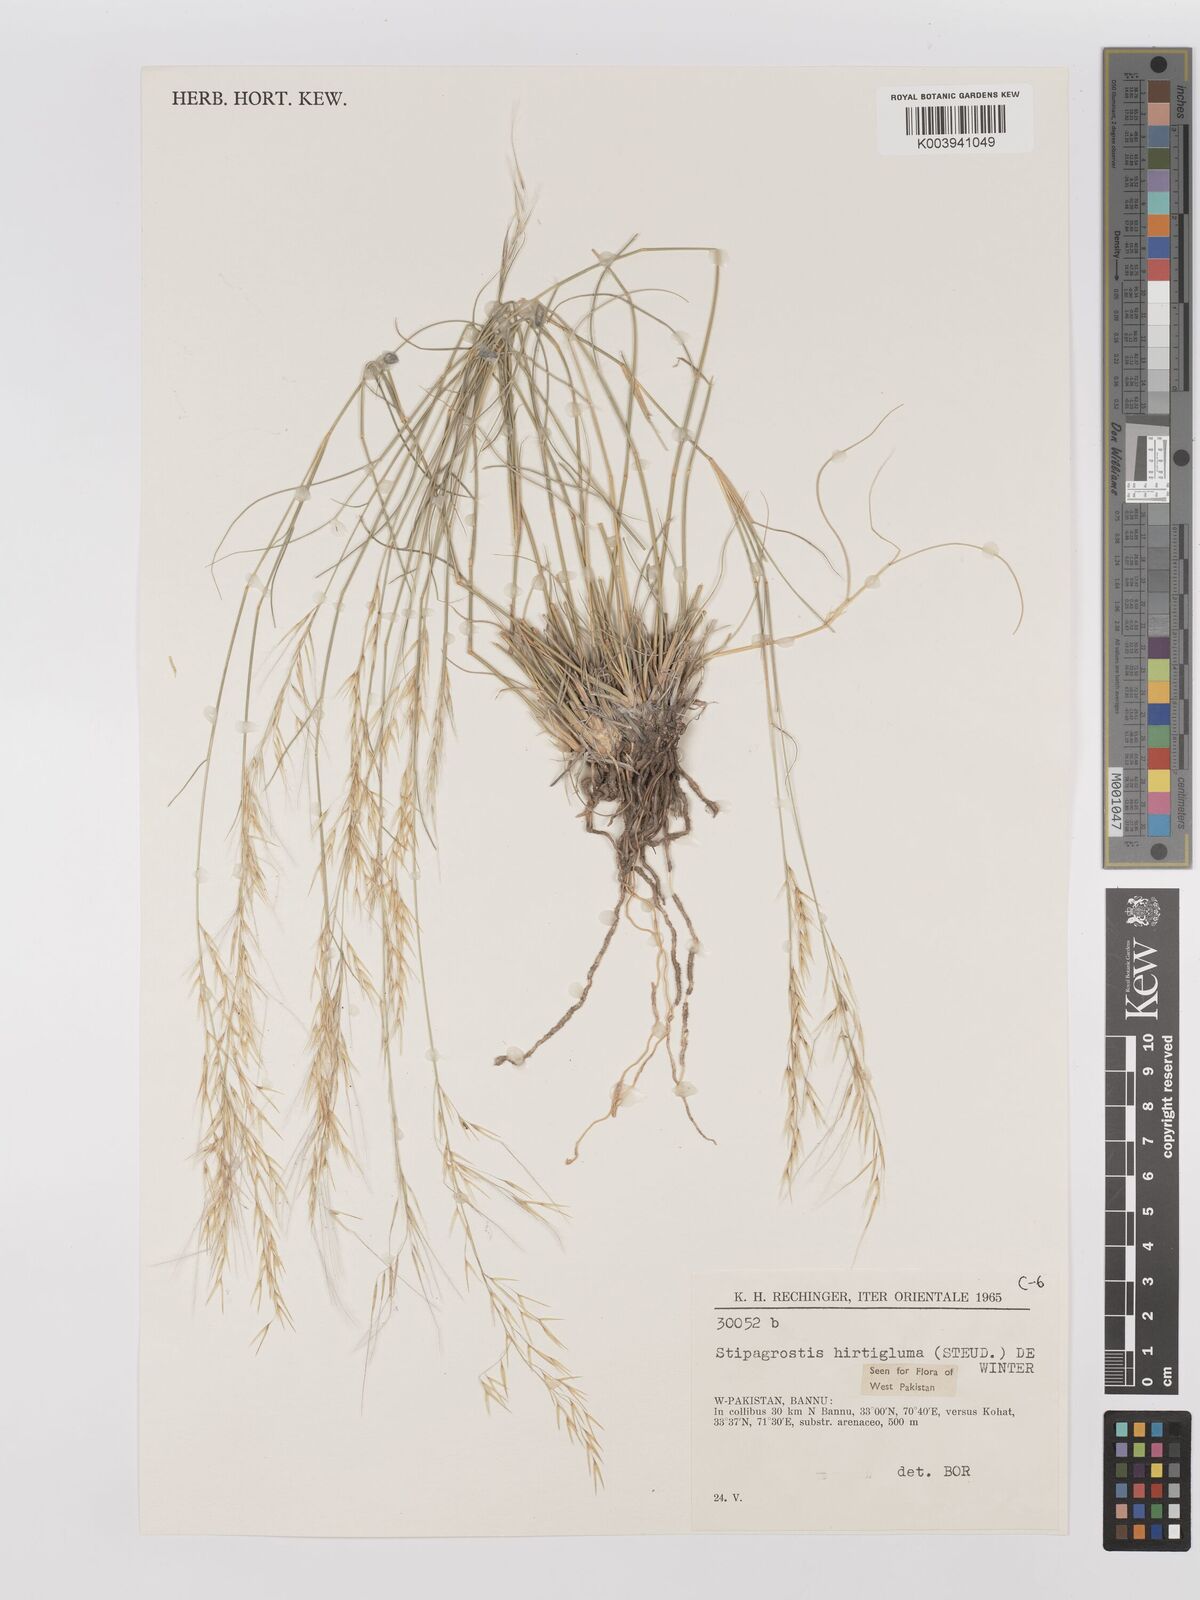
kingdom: Plantae
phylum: Tracheophyta
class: Liliopsida
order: Poales
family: Poaceae
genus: Stipagrostis
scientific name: Stipagrostis hirtigluma
